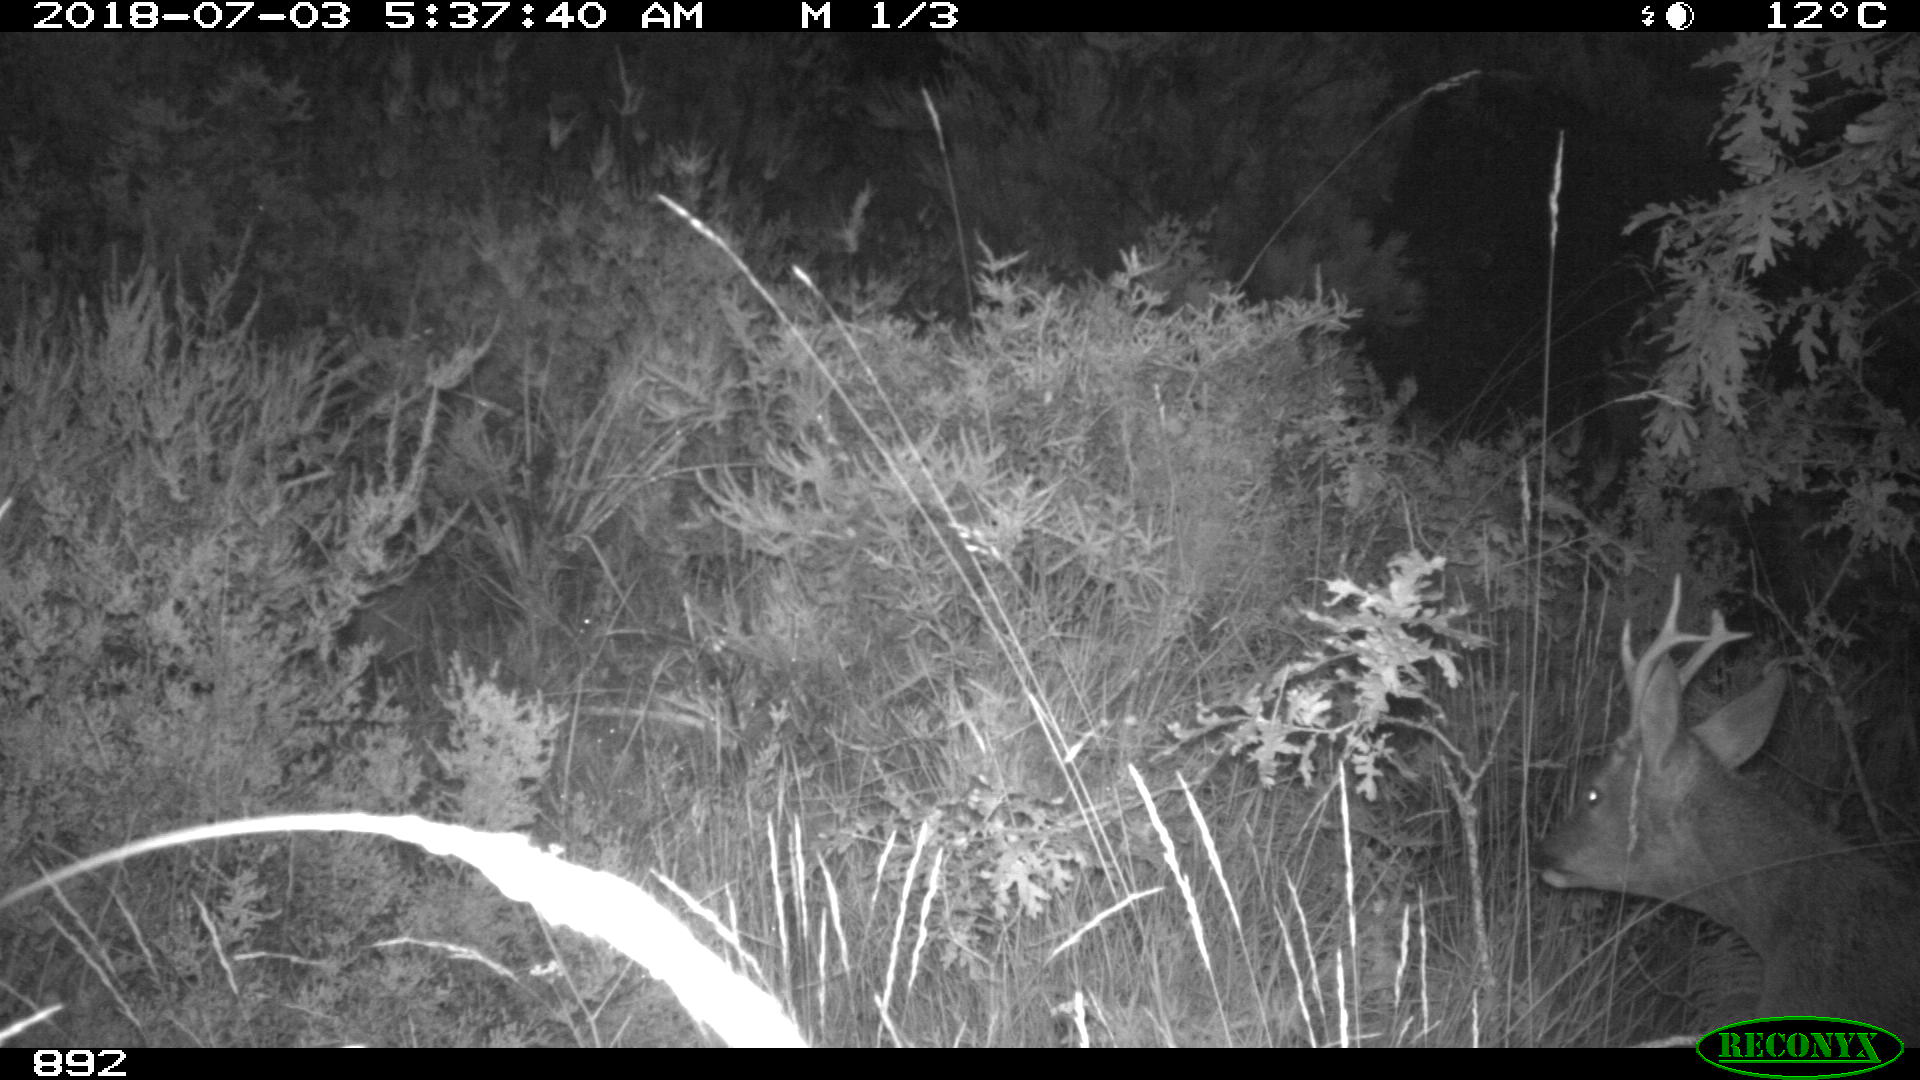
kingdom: Animalia
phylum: Chordata
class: Mammalia
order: Artiodactyla
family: Cervidae
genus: Capreolus
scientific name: Capreolus capreolus
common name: Western roe deer
